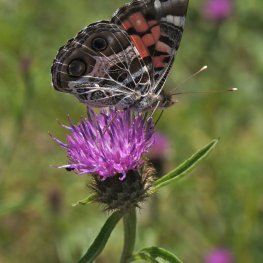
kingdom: Animalia
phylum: Arthropoda
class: Insecta
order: Lepidoptera
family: Nymphalidae
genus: Vanessa
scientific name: Vanessa virginiensis
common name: American Lady
